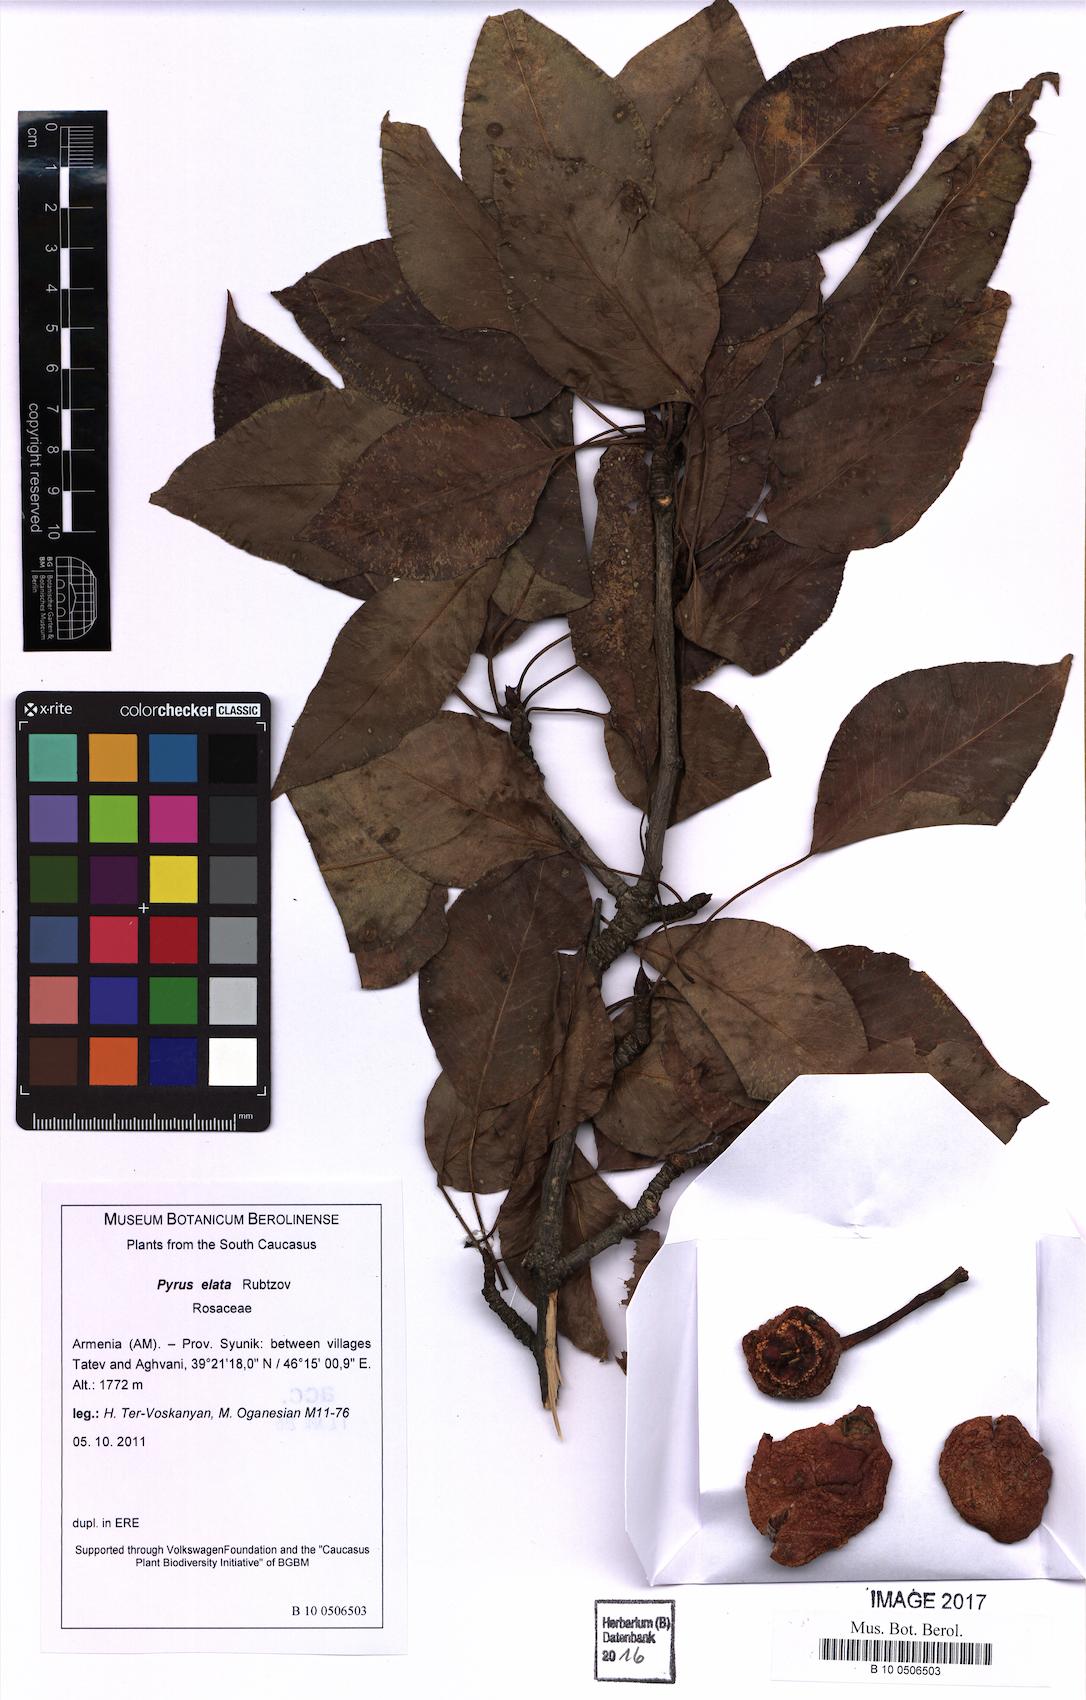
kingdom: Plantae
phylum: Tracheophyta
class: Magnoliopsida
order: Rosales
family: Rosaceae
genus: Pyrus
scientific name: Pyrus communis
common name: Pear
